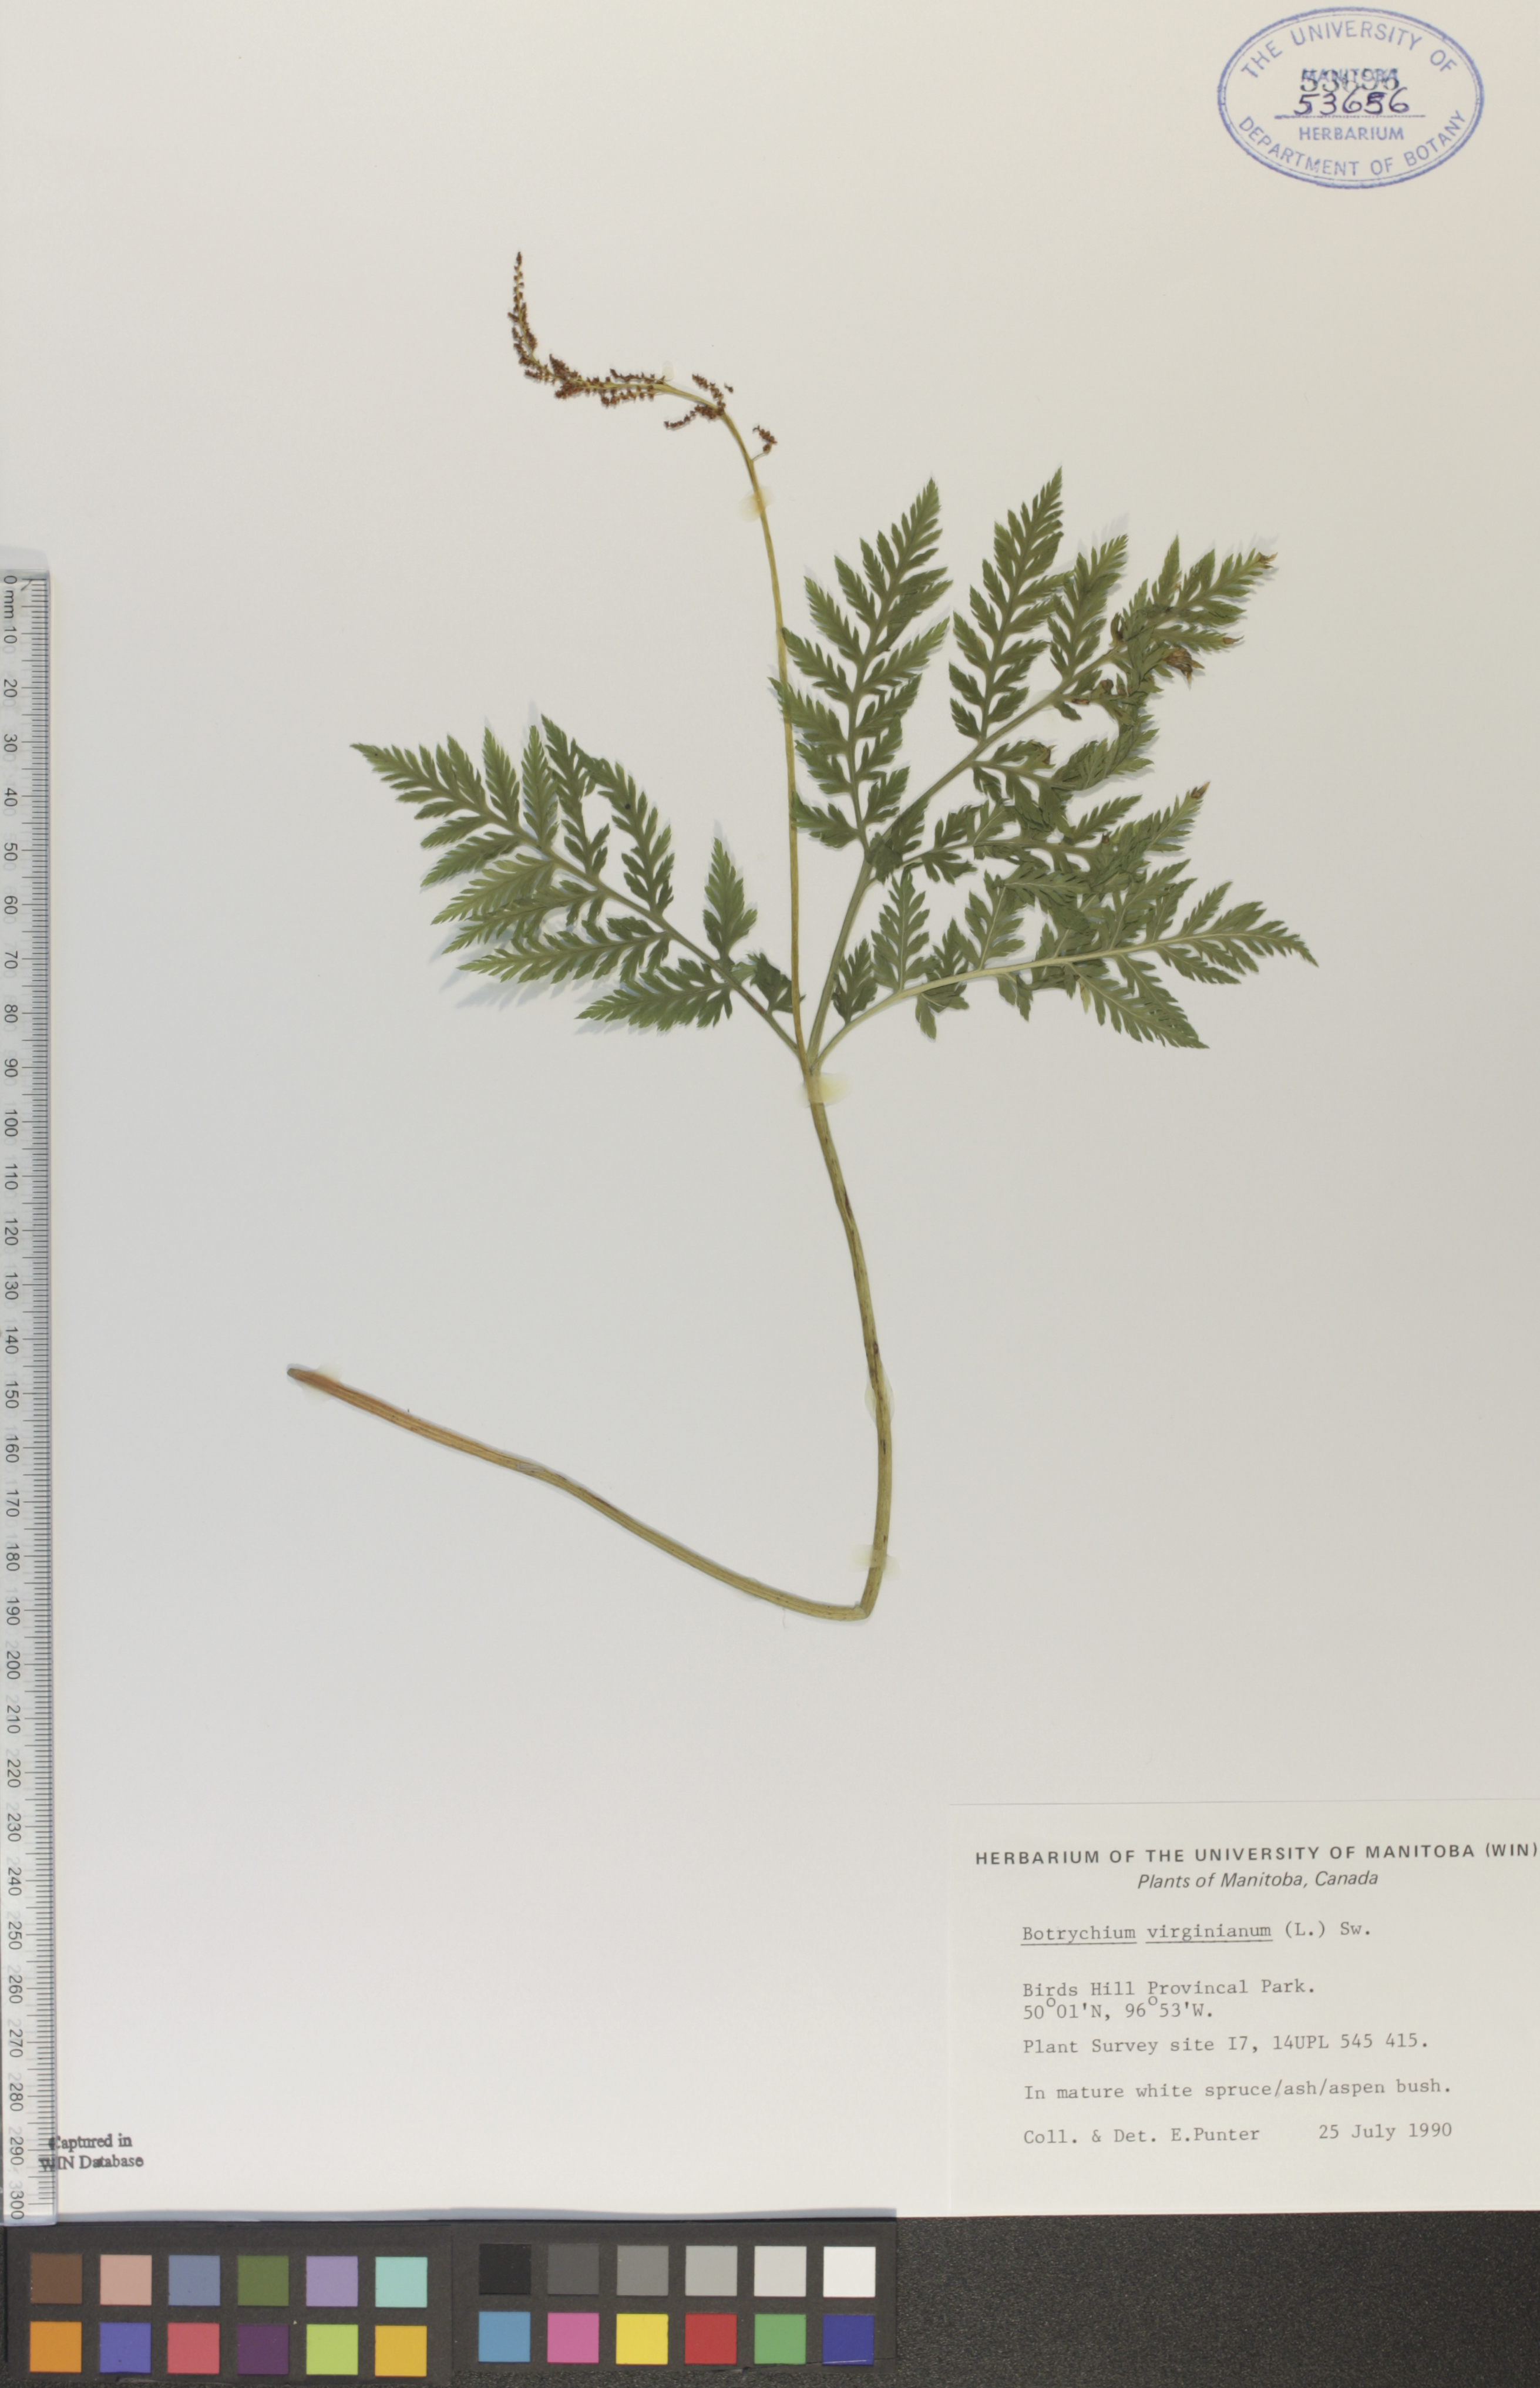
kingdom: Plantae
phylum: Tracheophyta
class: Polypodiopsida
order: Ophioglossales
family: Ophioglossaceae
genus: Botrypus
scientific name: Botrypus virginianus
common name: Common grapefern
